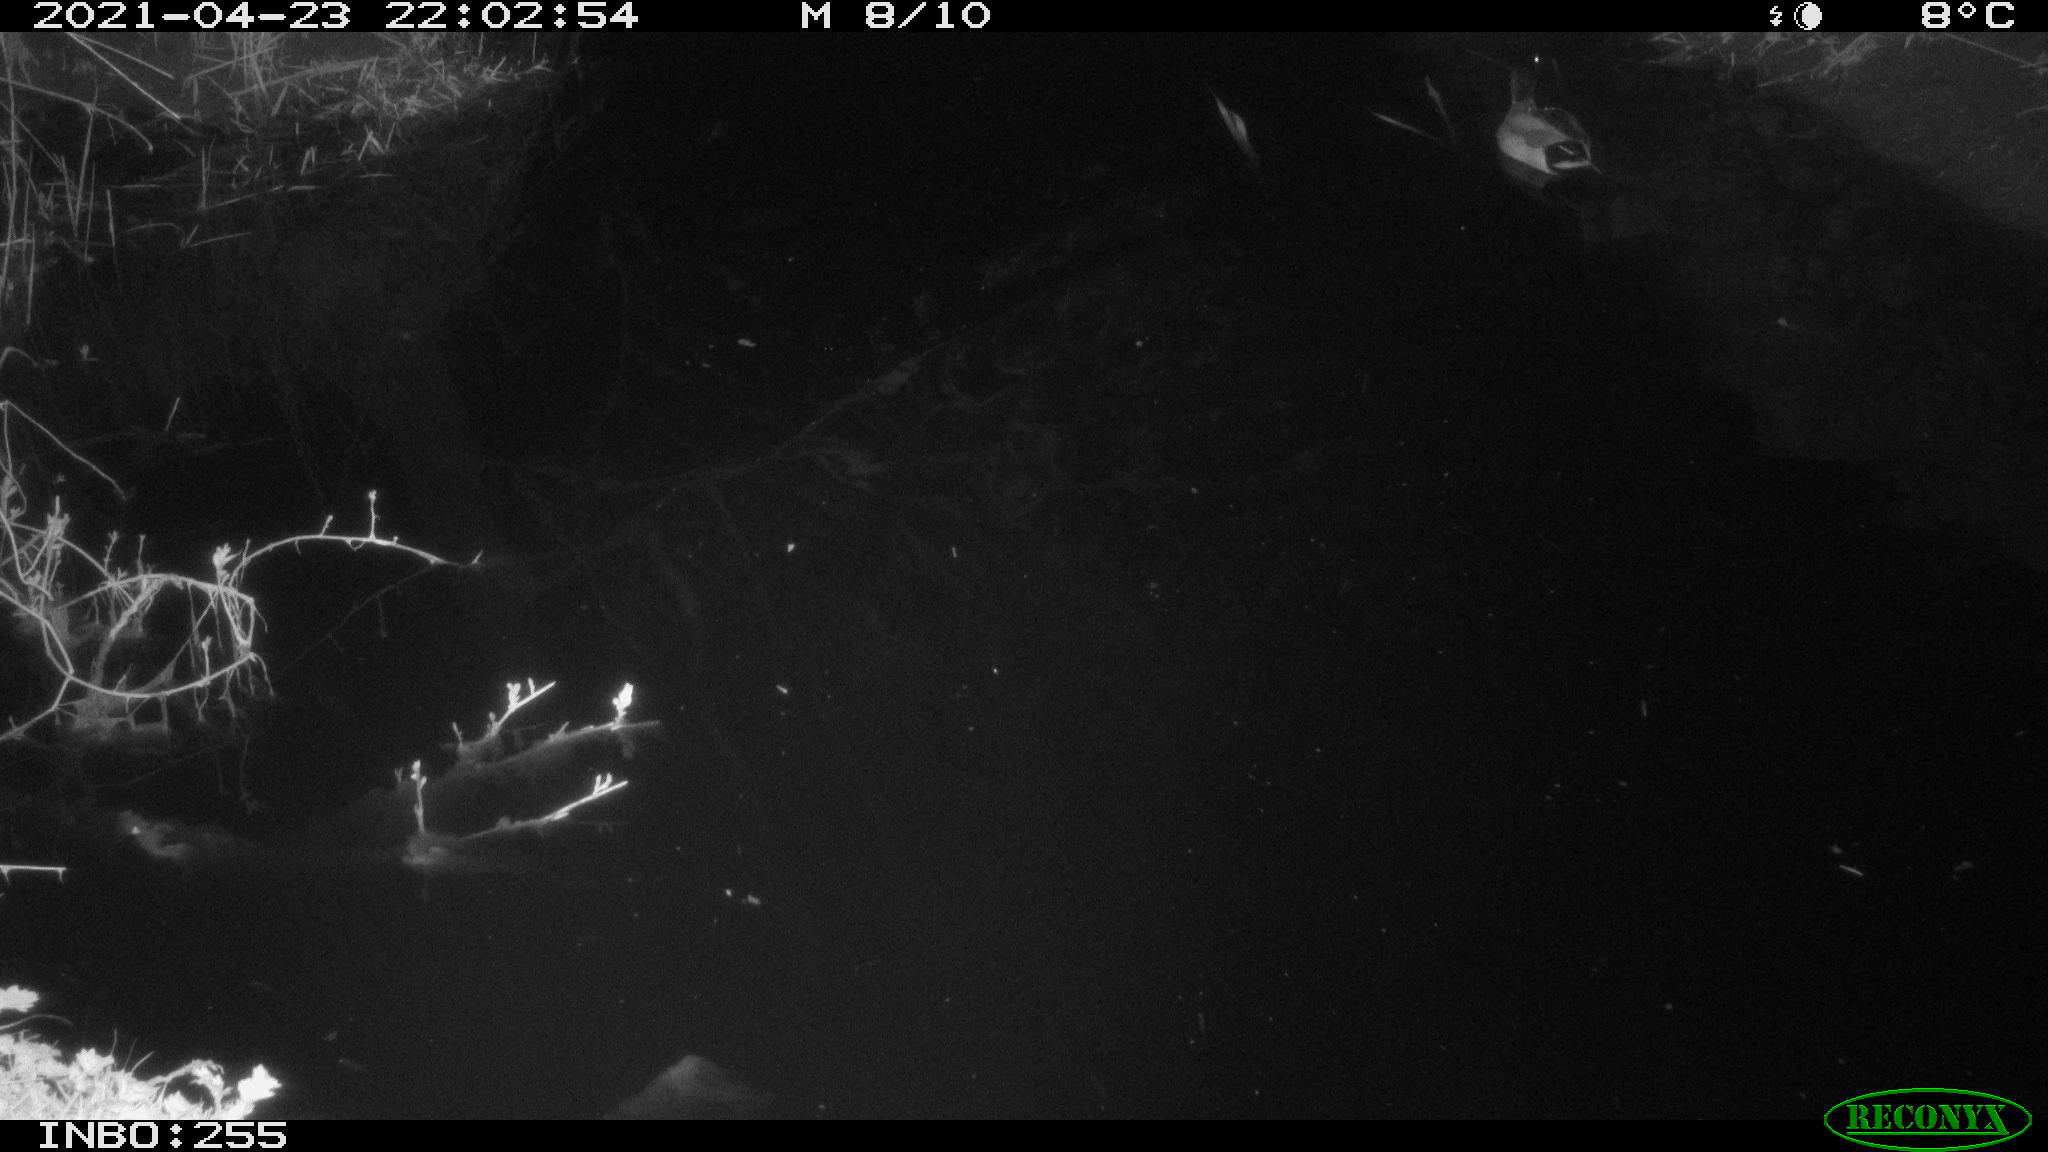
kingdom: Animalia
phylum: Chordata
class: Aves
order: Anseriformes
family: Anatidae
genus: Anas
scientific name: Anas platyrhynchos
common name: Mallard
